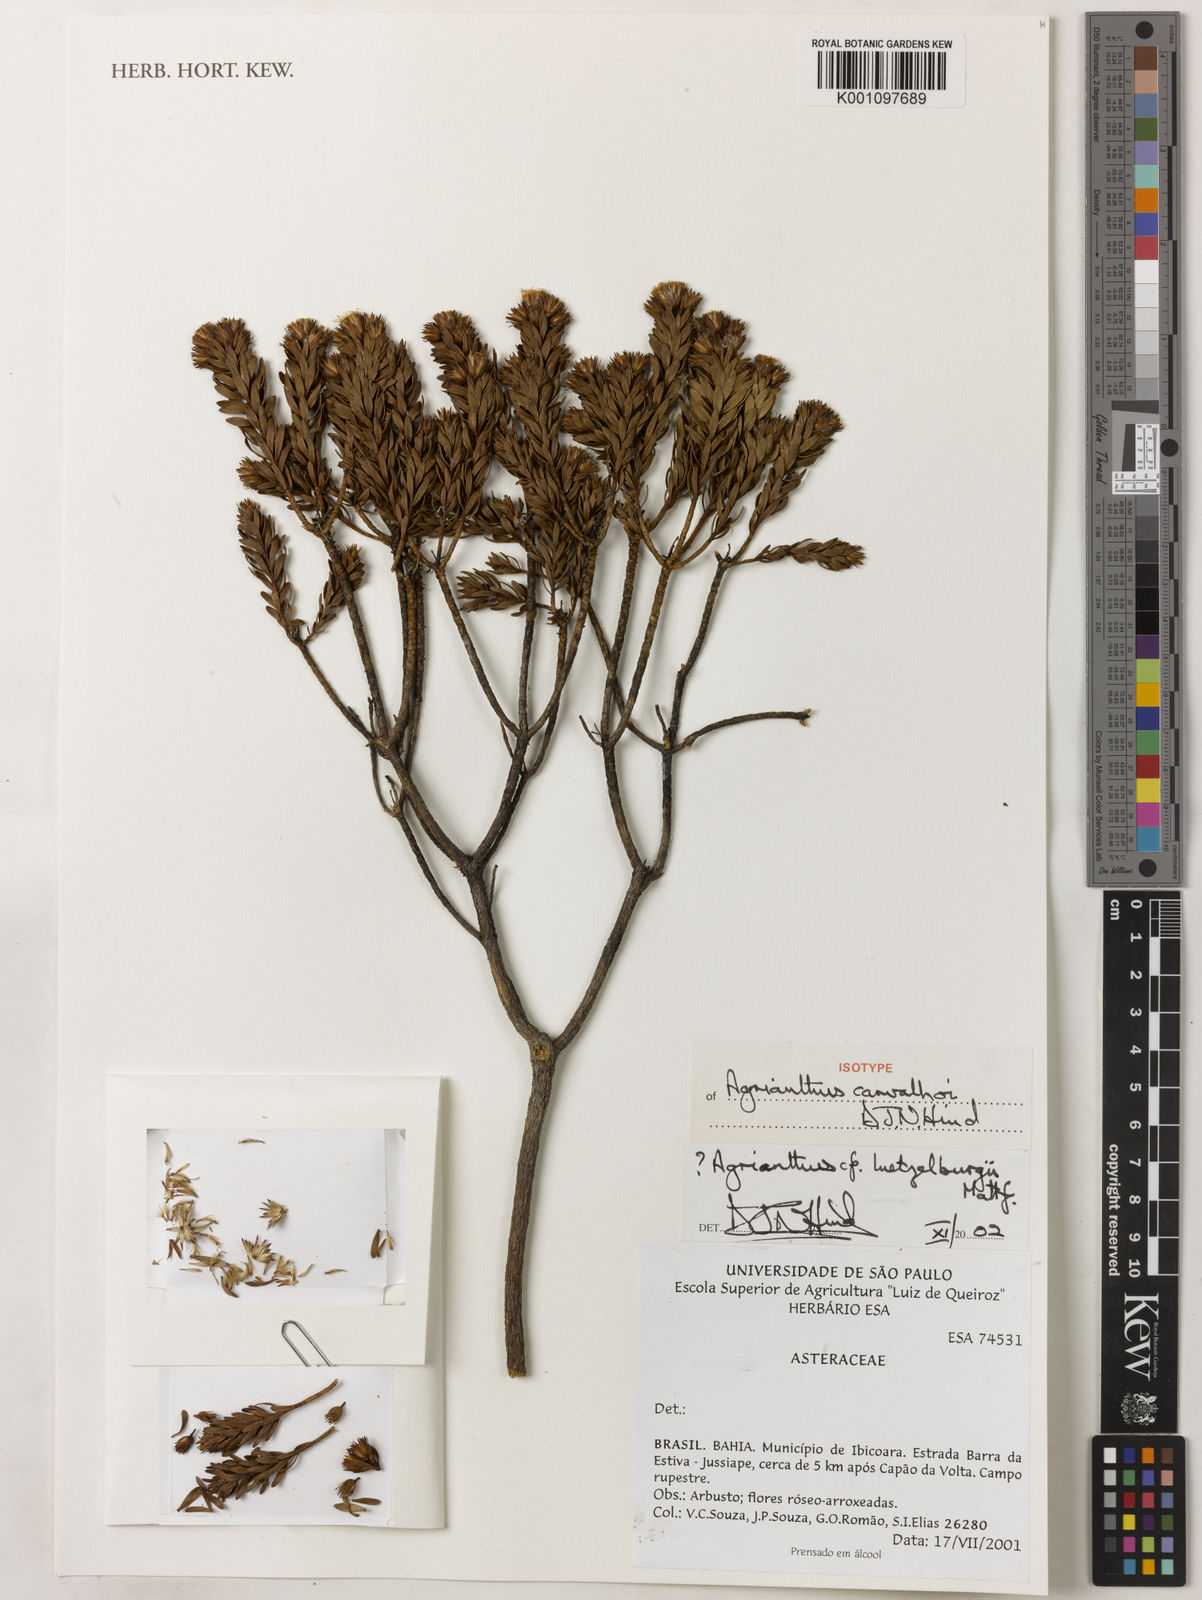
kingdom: Plantae
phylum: Tracheophyta
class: Magnoliopsida
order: Asterales
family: Asteraceae
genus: Agrianthus
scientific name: Agrianthus carvalhoi
